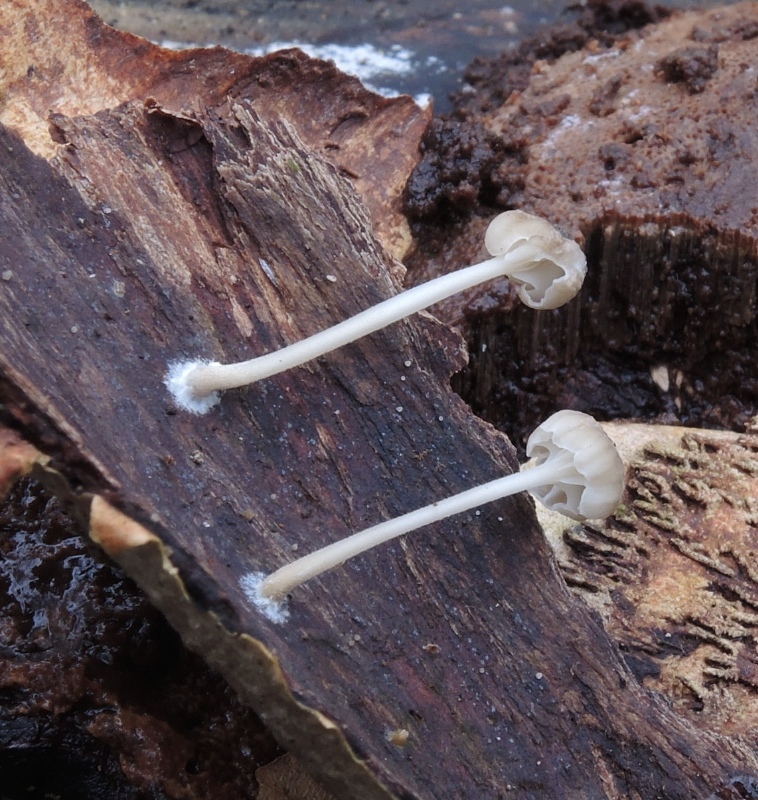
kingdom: Fungi
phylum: Basidiomycota
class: Agaricomycetes
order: Agaricales
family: Porotheleaceae
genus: Phloeomana
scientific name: Phloeomana speirea
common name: kvist-huesvamp
